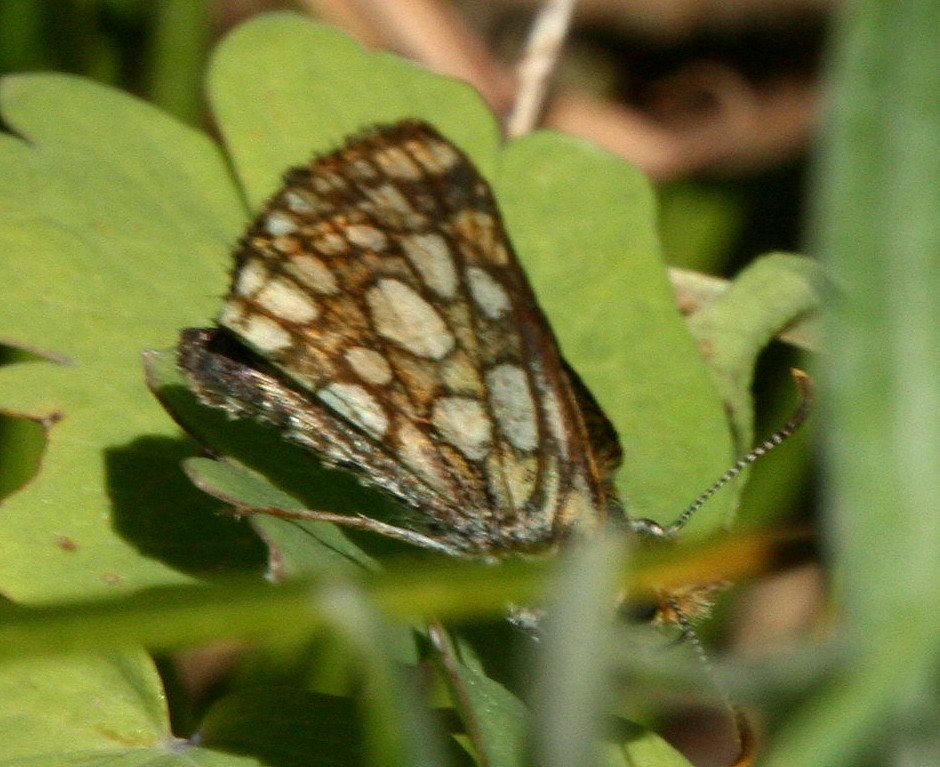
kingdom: Animalia
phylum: Arthropoda
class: Insecta
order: Lepidoptera
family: Hesperiidae
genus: Carterocephalus
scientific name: Carterocephalus palaemon
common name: Chequered Skipper
